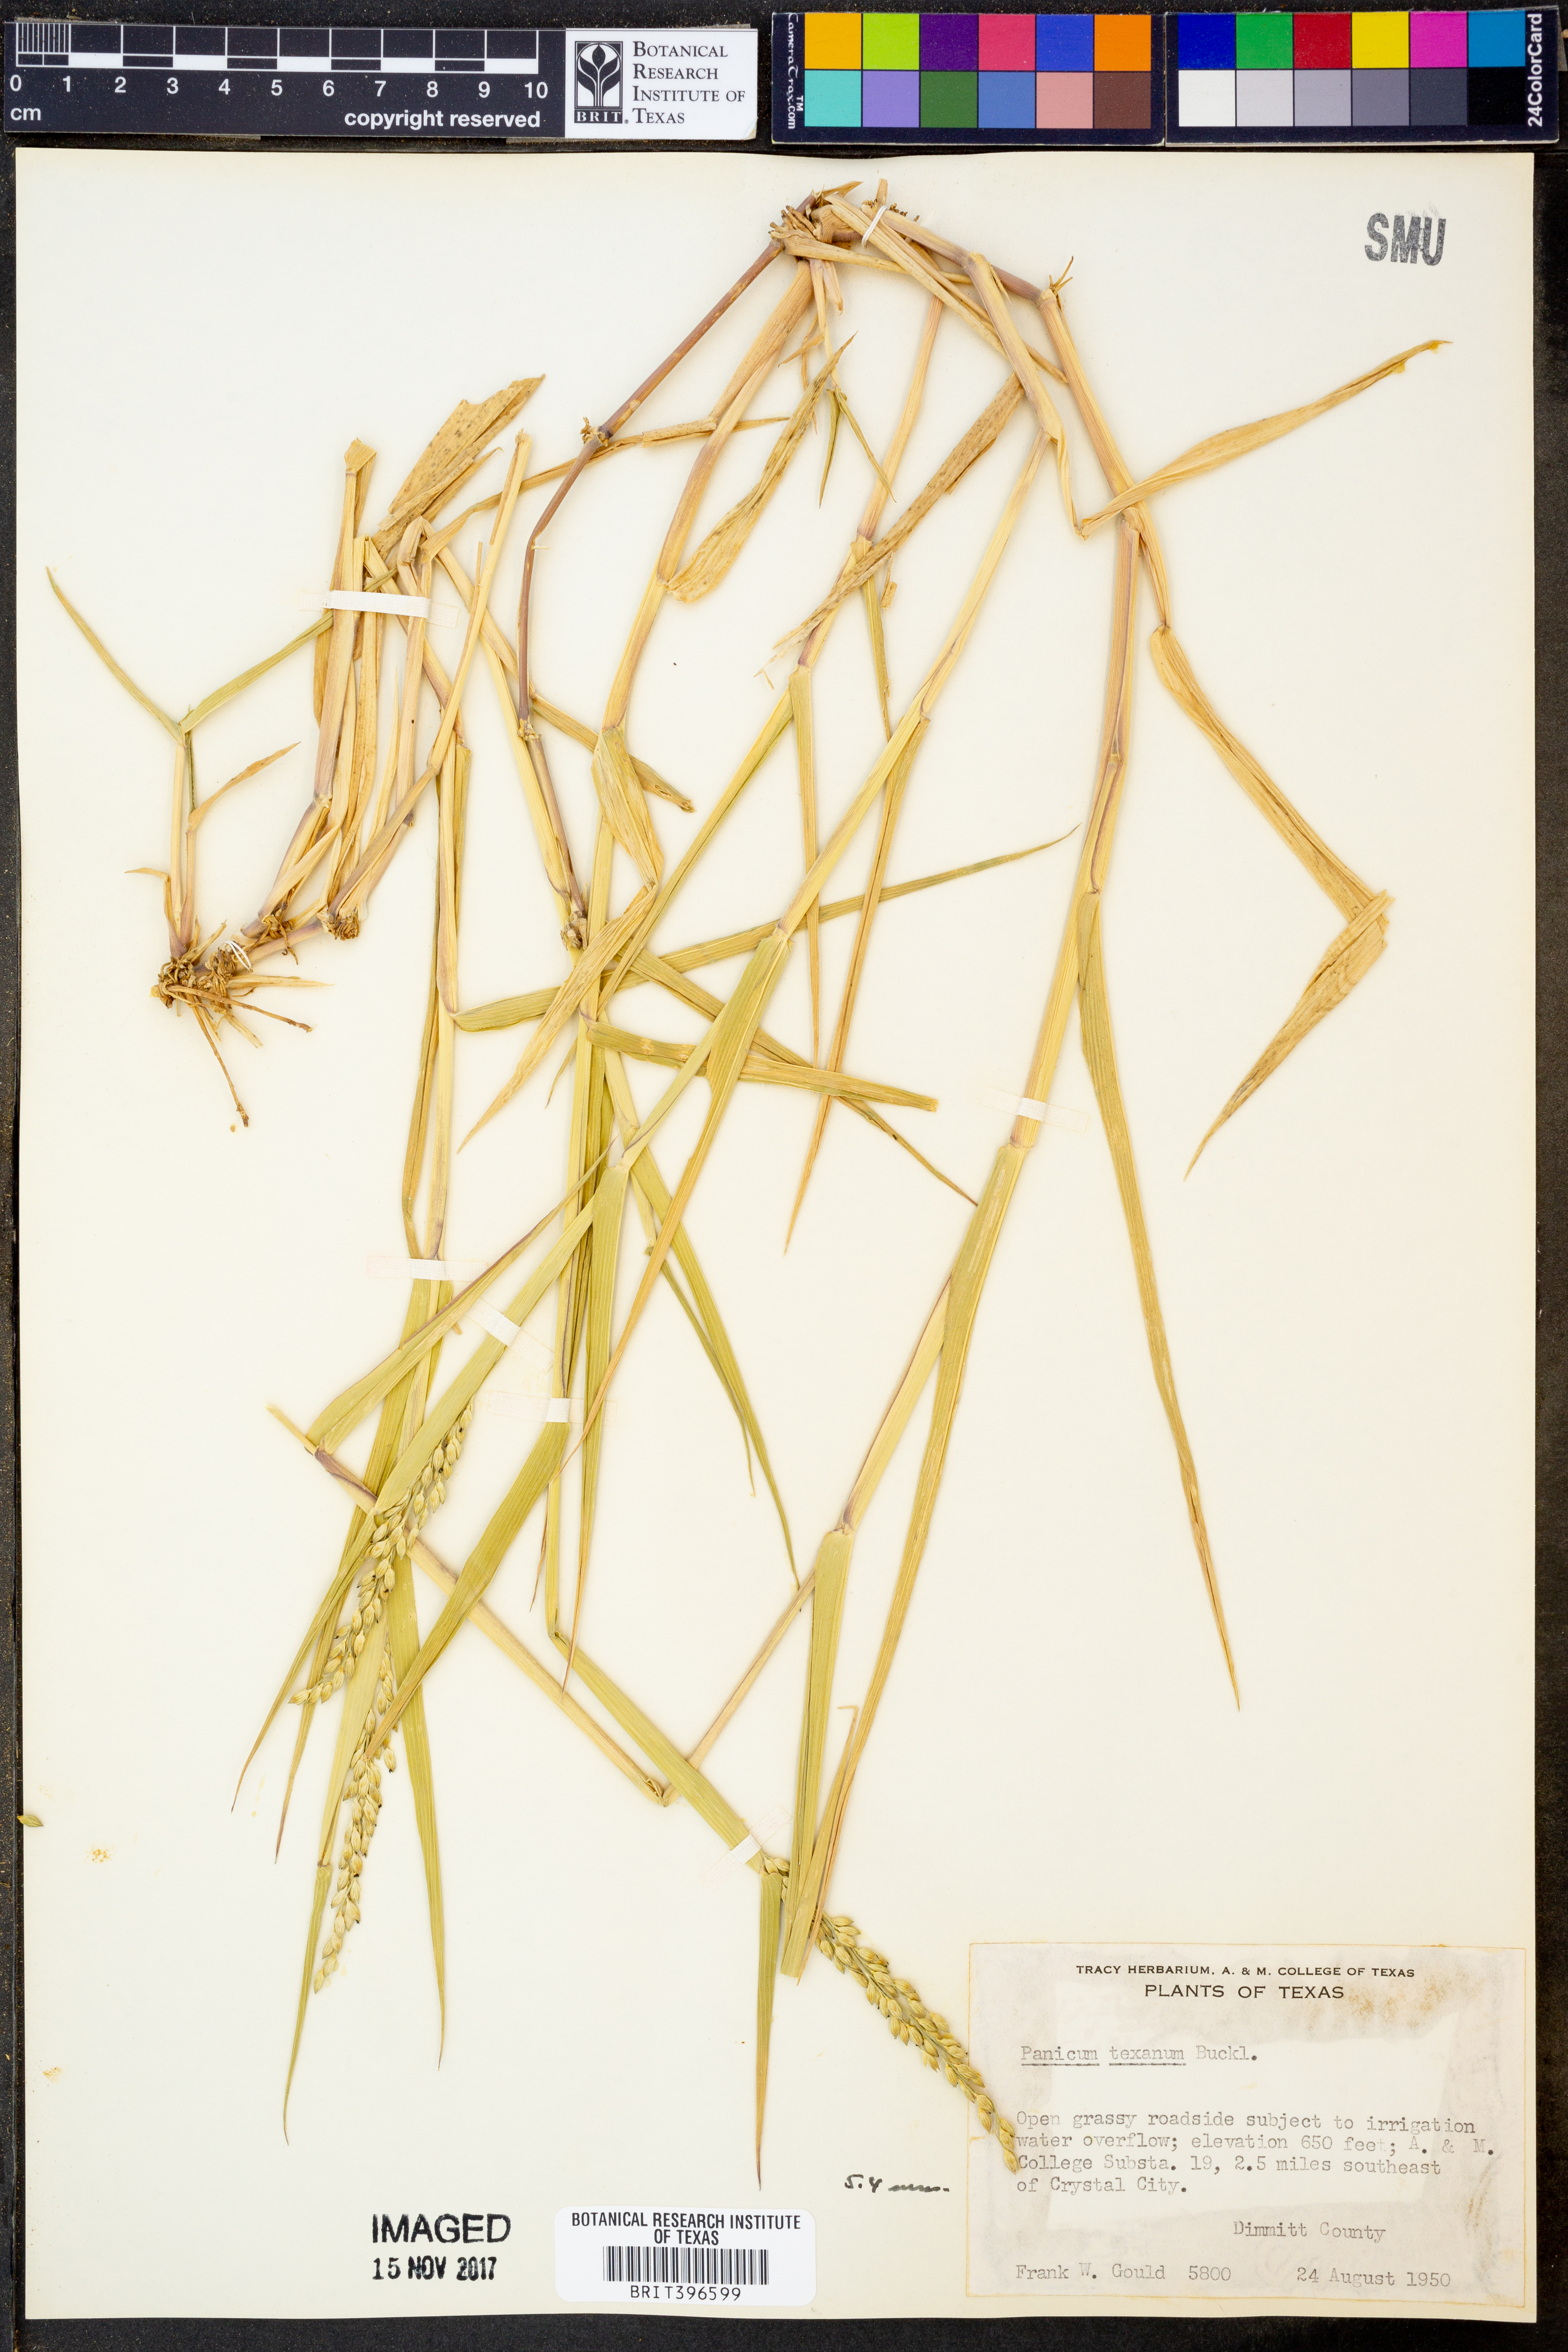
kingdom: Plantae
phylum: Tracheophyta
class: Liliopsida
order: Poales
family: Poaceae
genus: Urochloa
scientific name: Urochloa texana
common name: Texas millet
